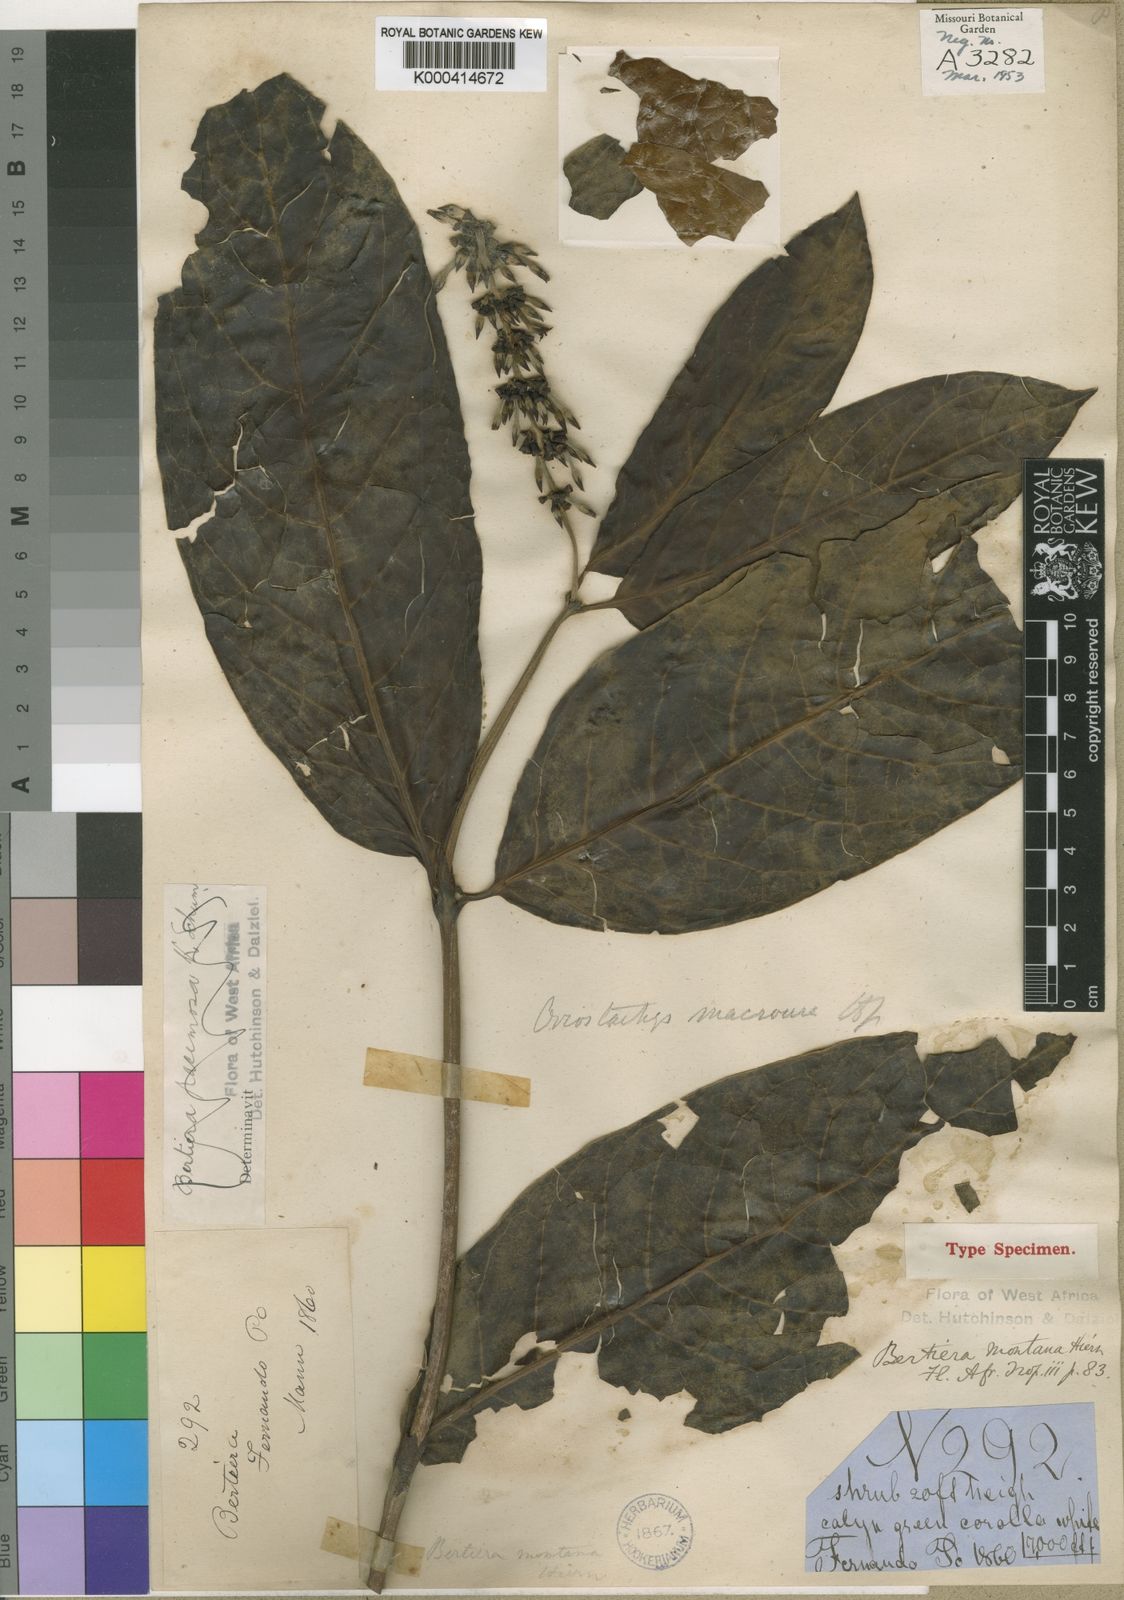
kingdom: Plantae
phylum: Tracheophyta
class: Magnoliopsida
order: Gentianales
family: Rubiaceae
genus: Bertiera
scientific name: Bertiera racemosa
